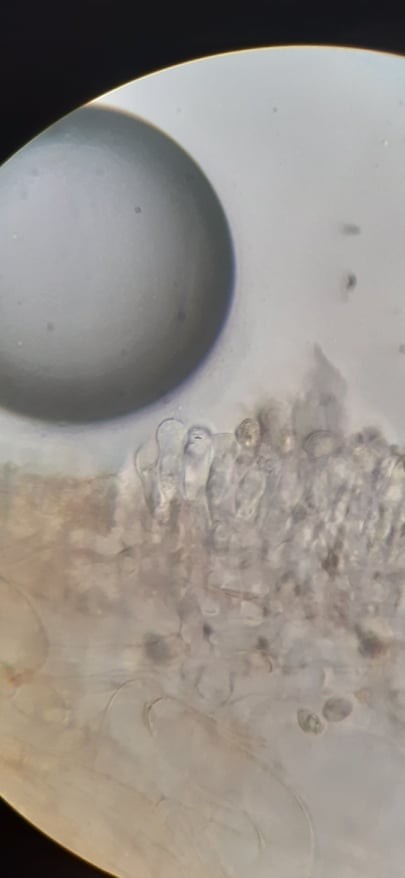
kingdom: Fungi
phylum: Basidiomycota
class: Agaricomycetes
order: Agaricales
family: Tubariaceae
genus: Tubaria
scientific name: Tubaria furfuracea
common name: kliddet fnughat
